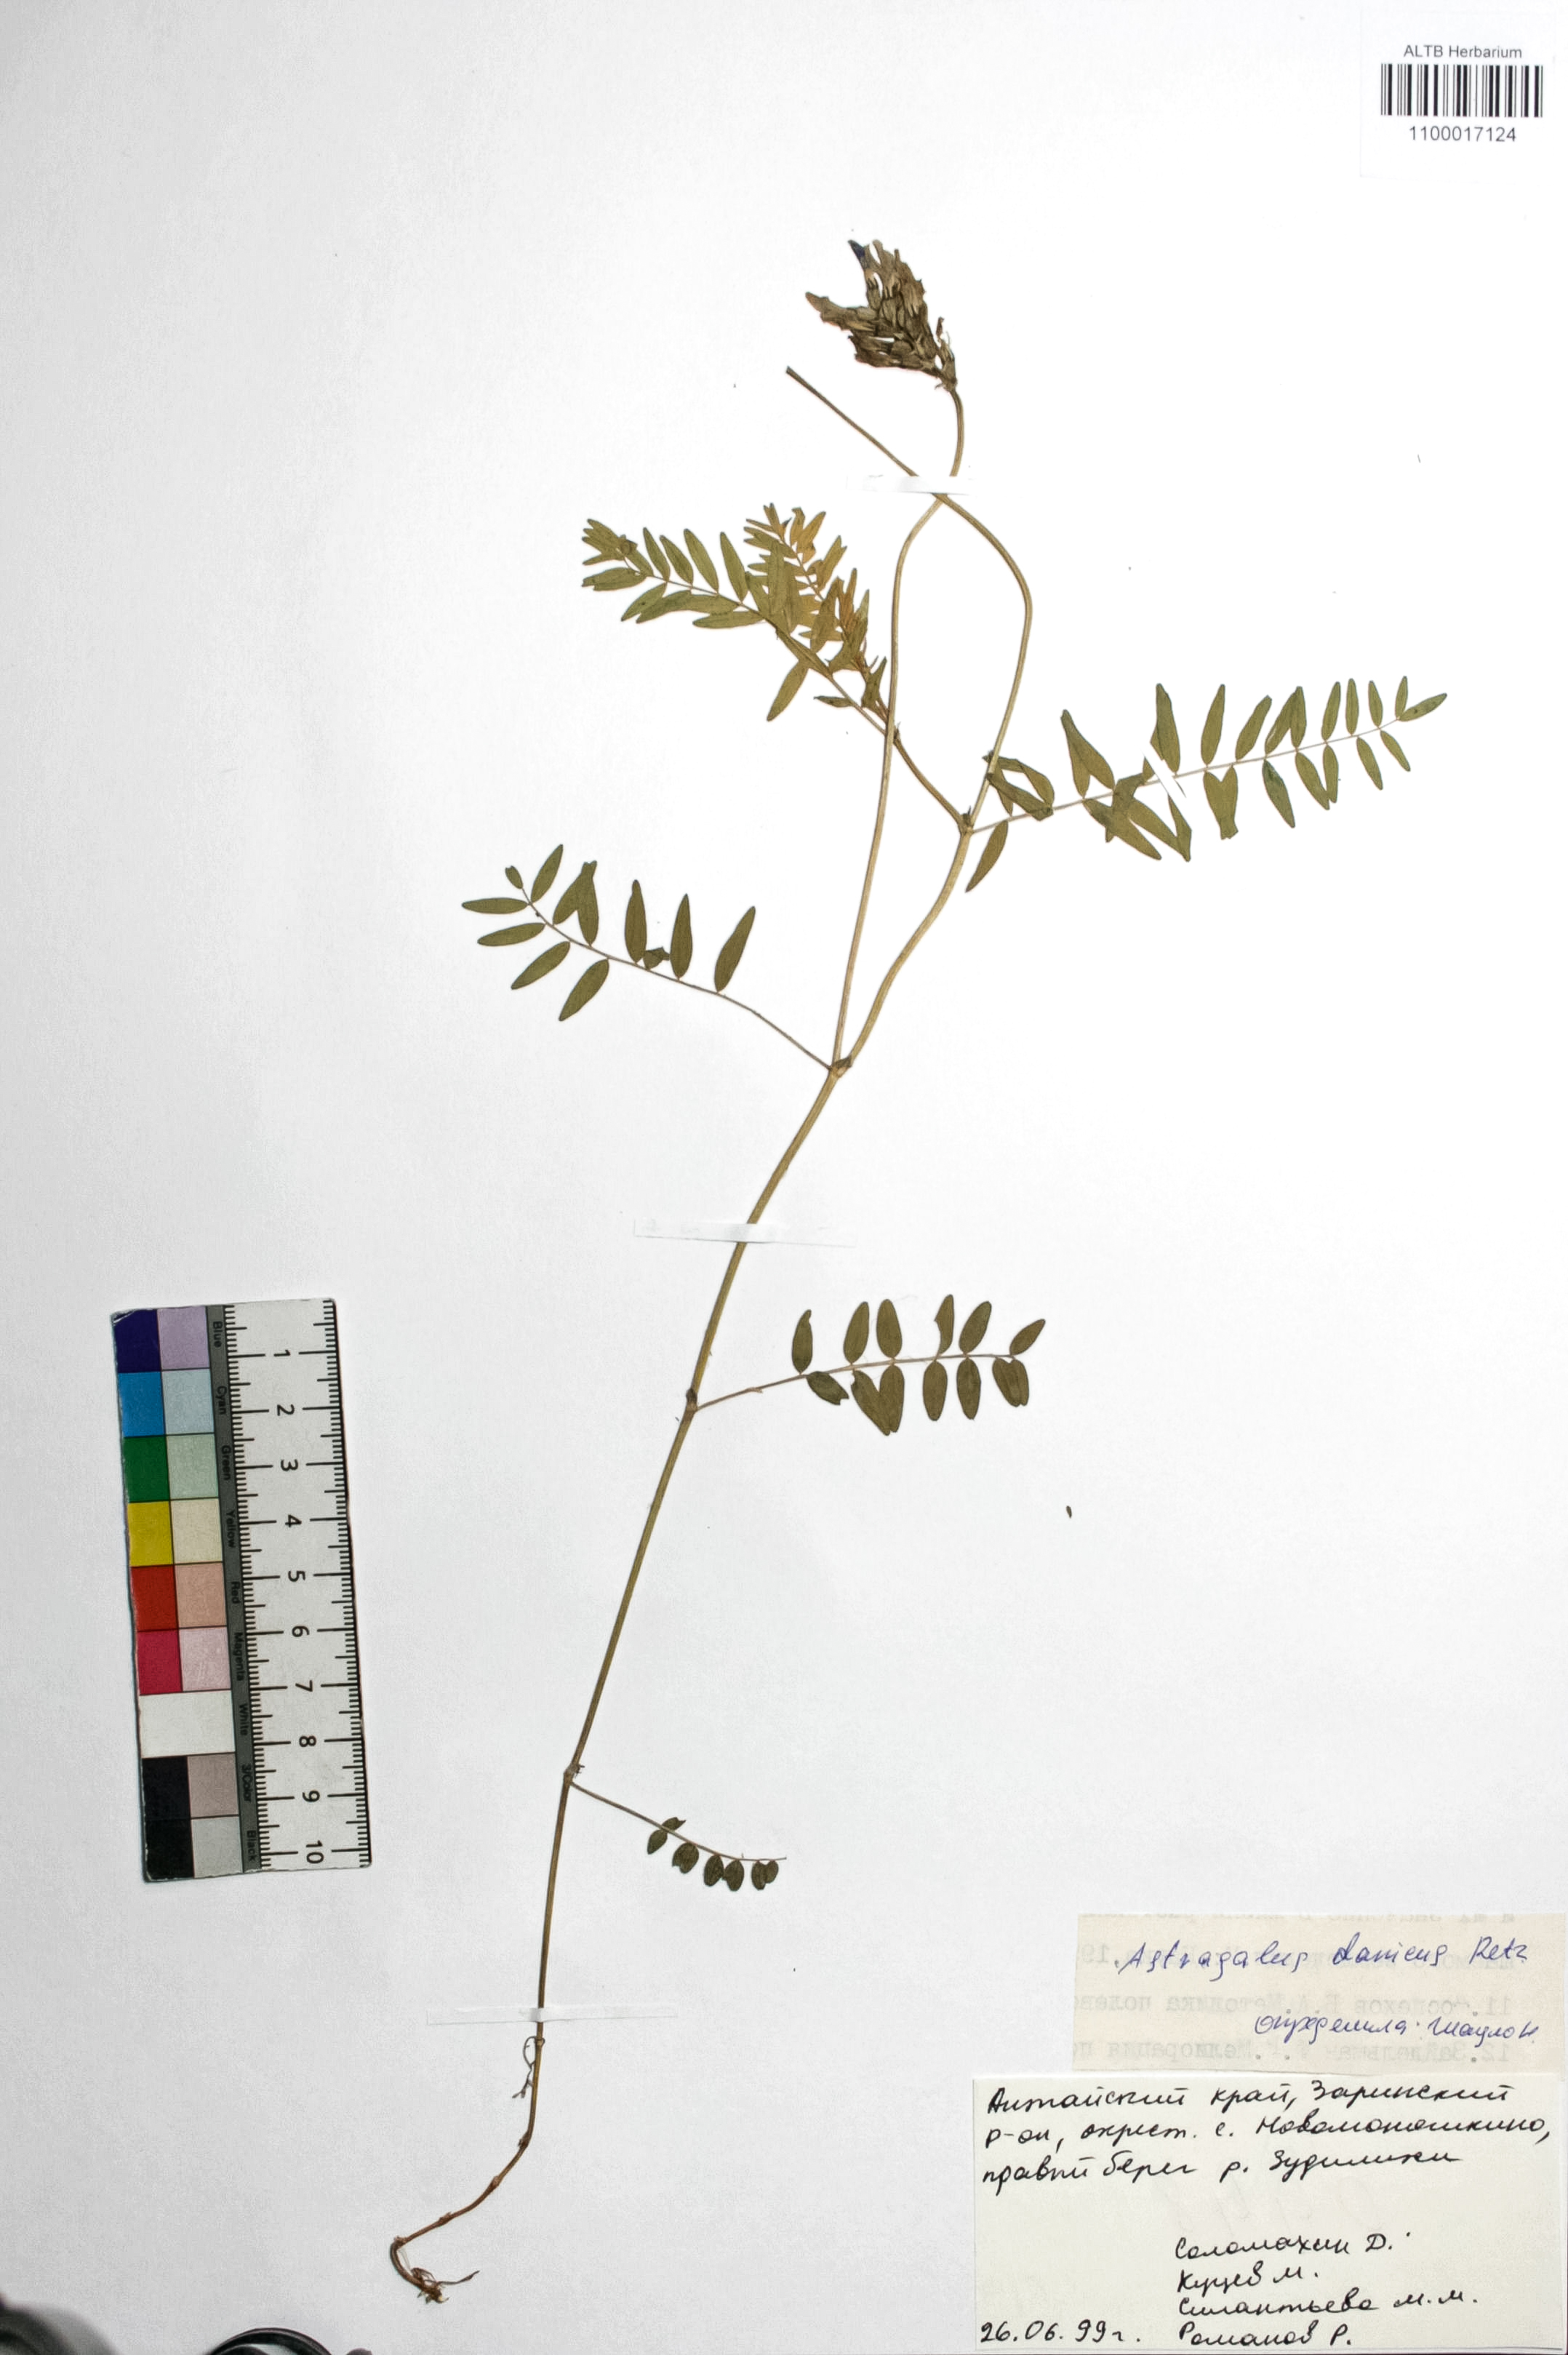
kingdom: Plantae
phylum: Tracheophyta
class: Magnoliopsida
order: Fabales
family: Fabaceae
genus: Astragalus
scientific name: Astragalus danicus
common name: Purple milk-vetch
